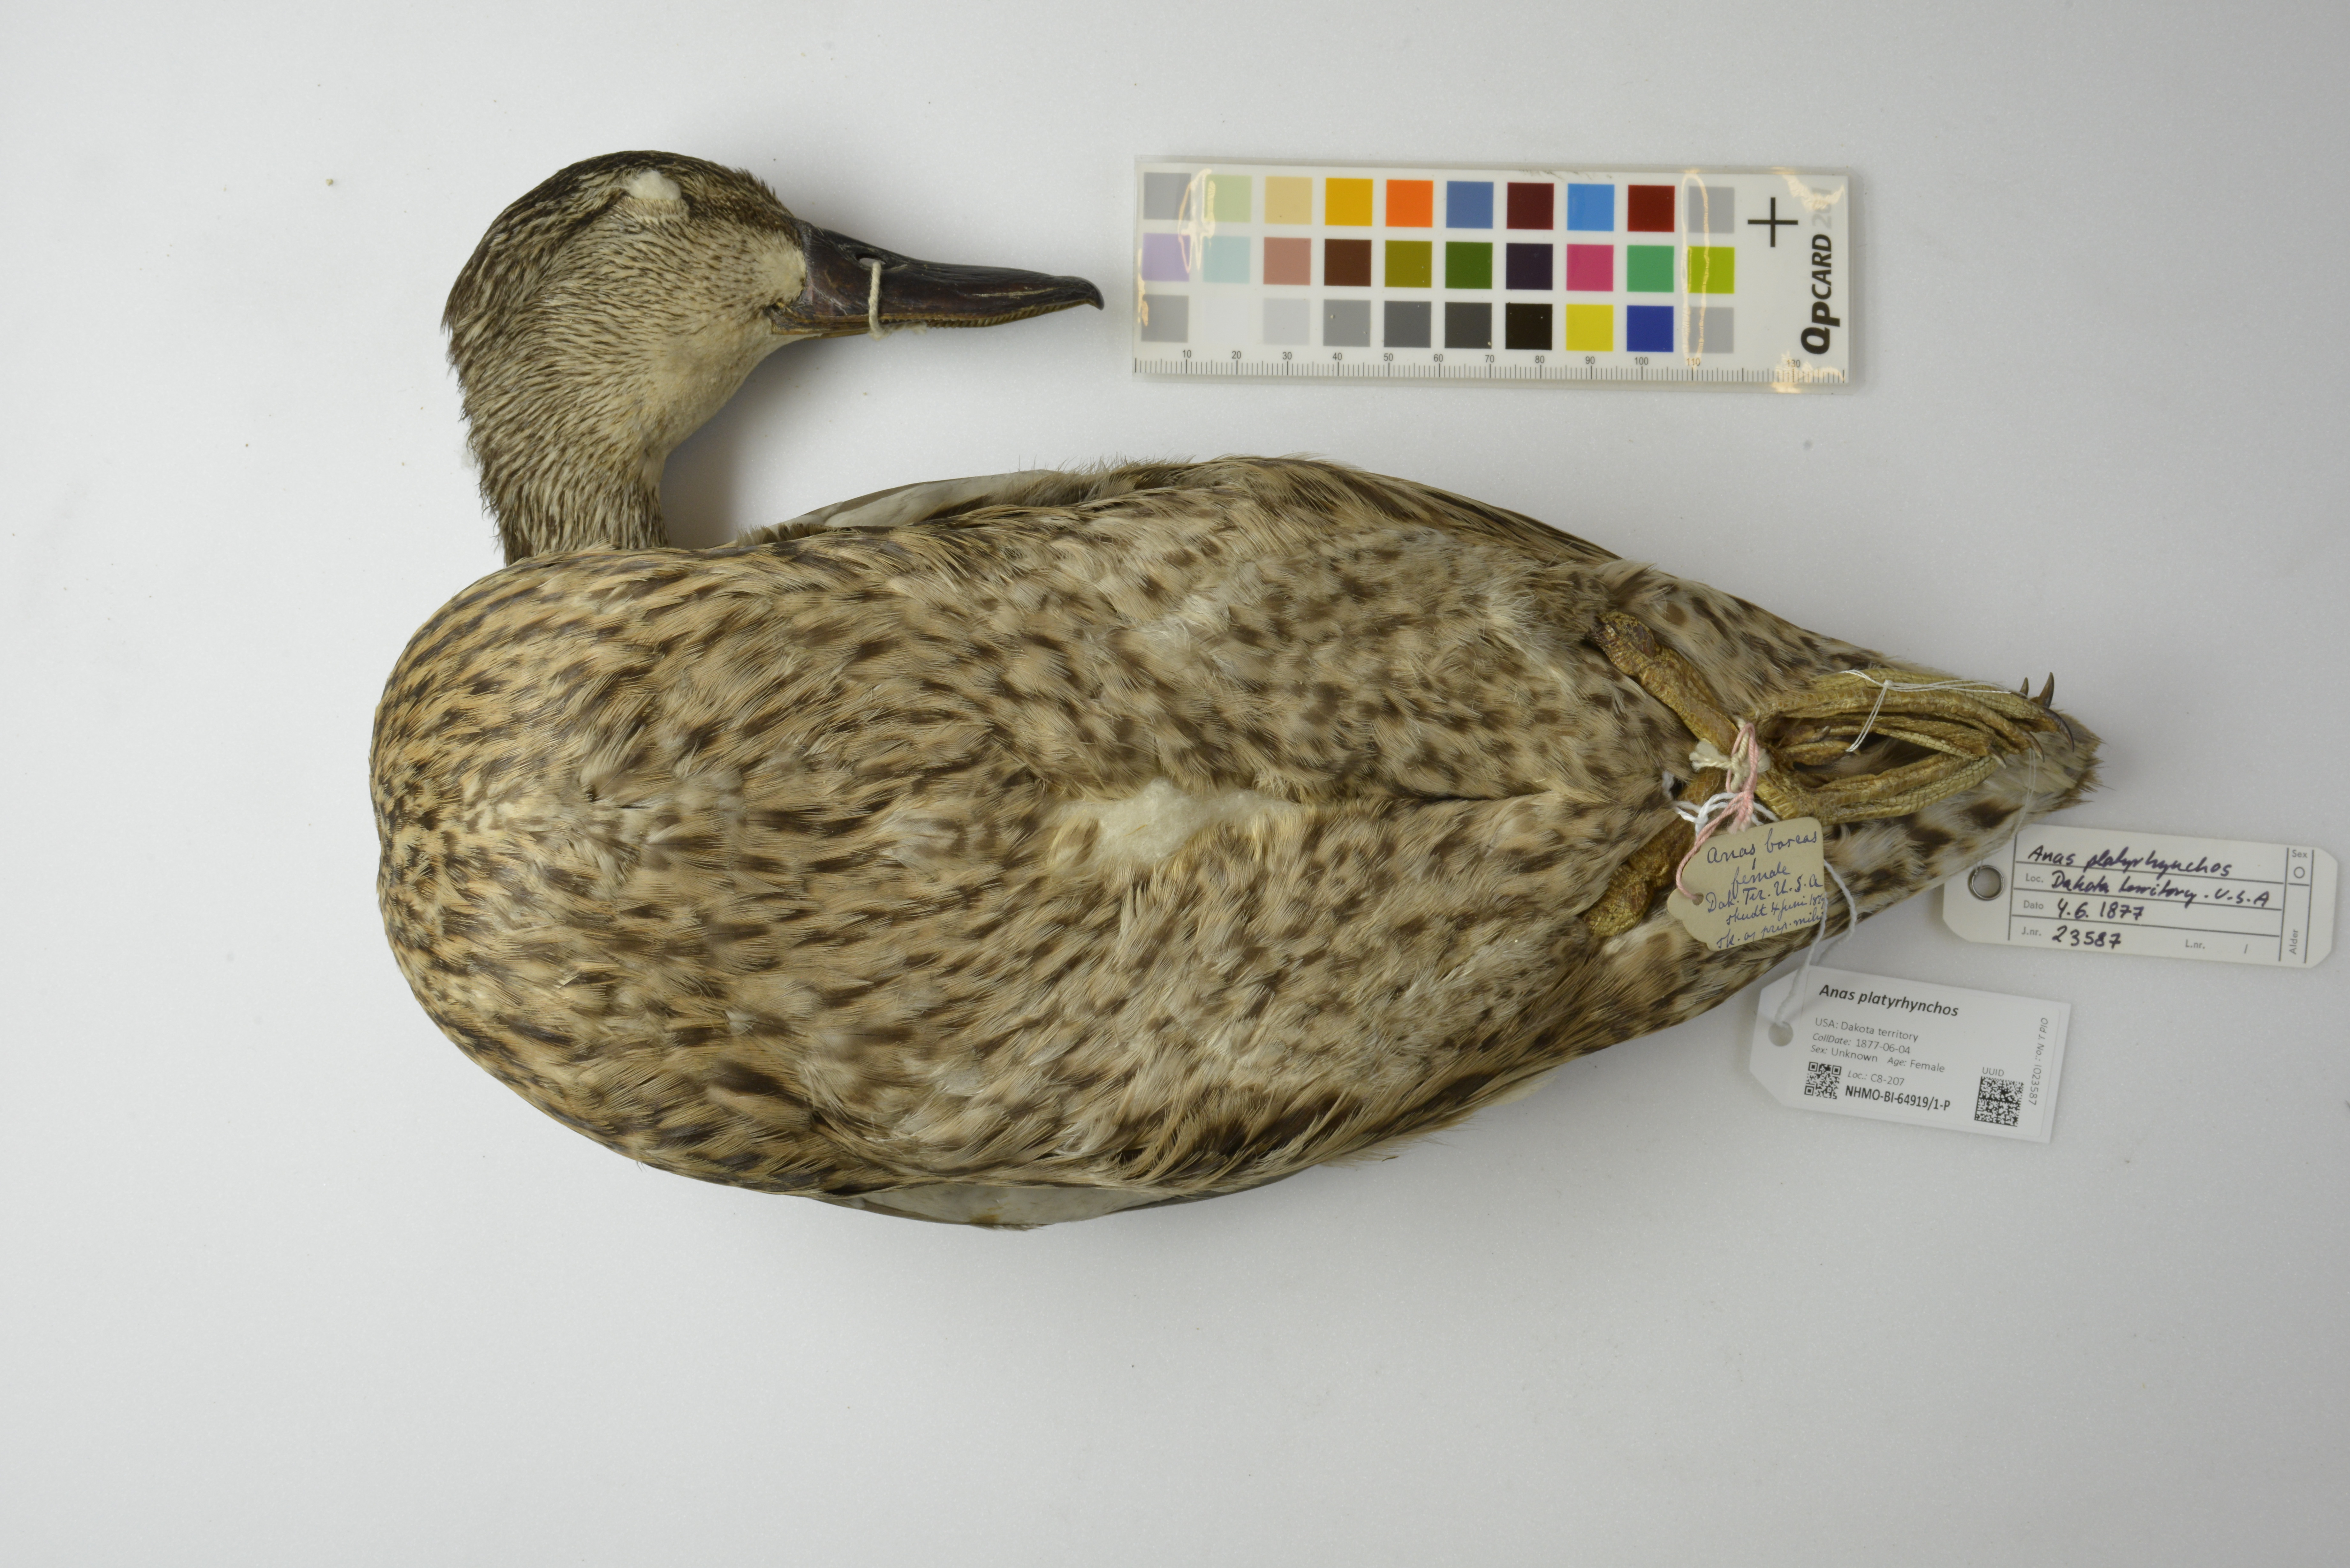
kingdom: Animalia
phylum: Chordata
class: Aves
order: Anseriformes
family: Anatidae
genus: Anas
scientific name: Anas platyrhynchos
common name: Mallard
